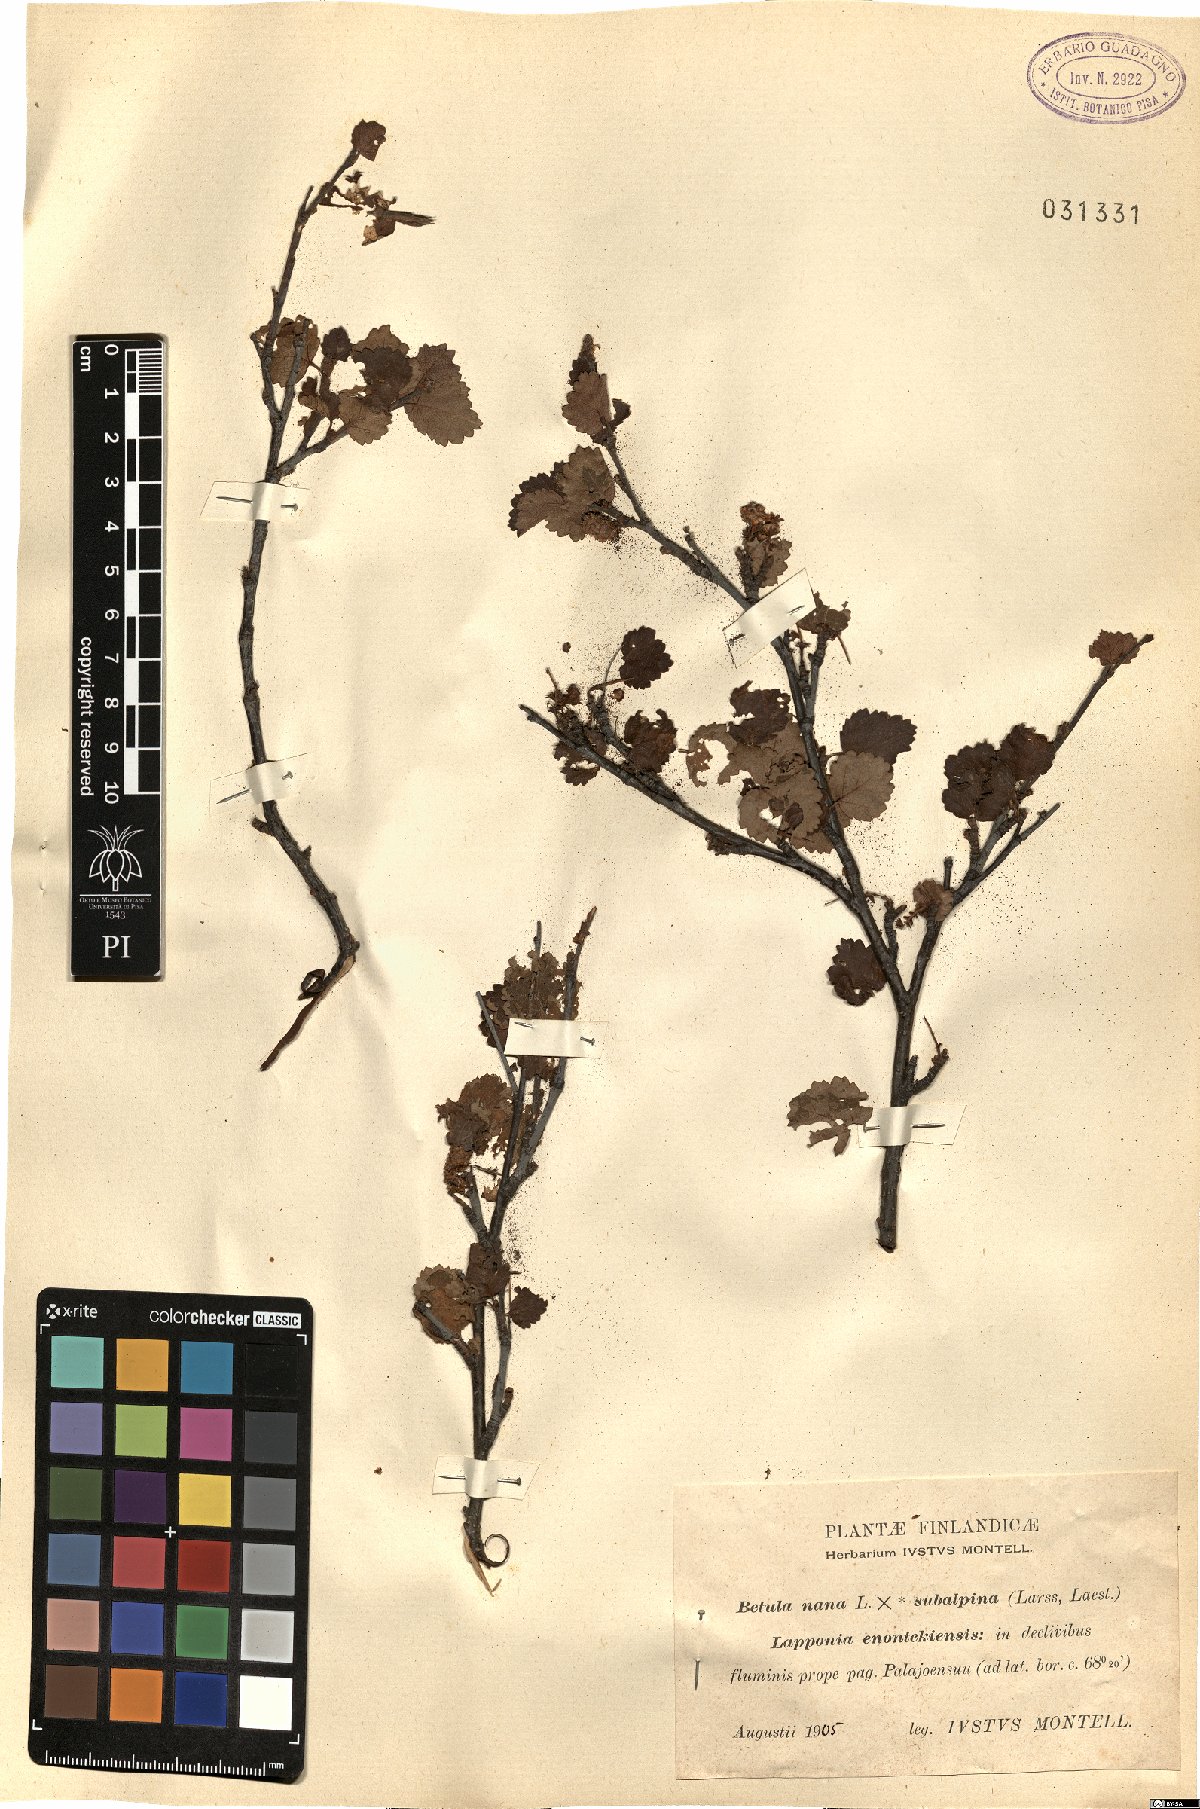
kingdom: Plantae
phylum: Tracheophyta
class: Magnoliopsida
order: Fagales
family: Betulaceae
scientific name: Betulaceae
